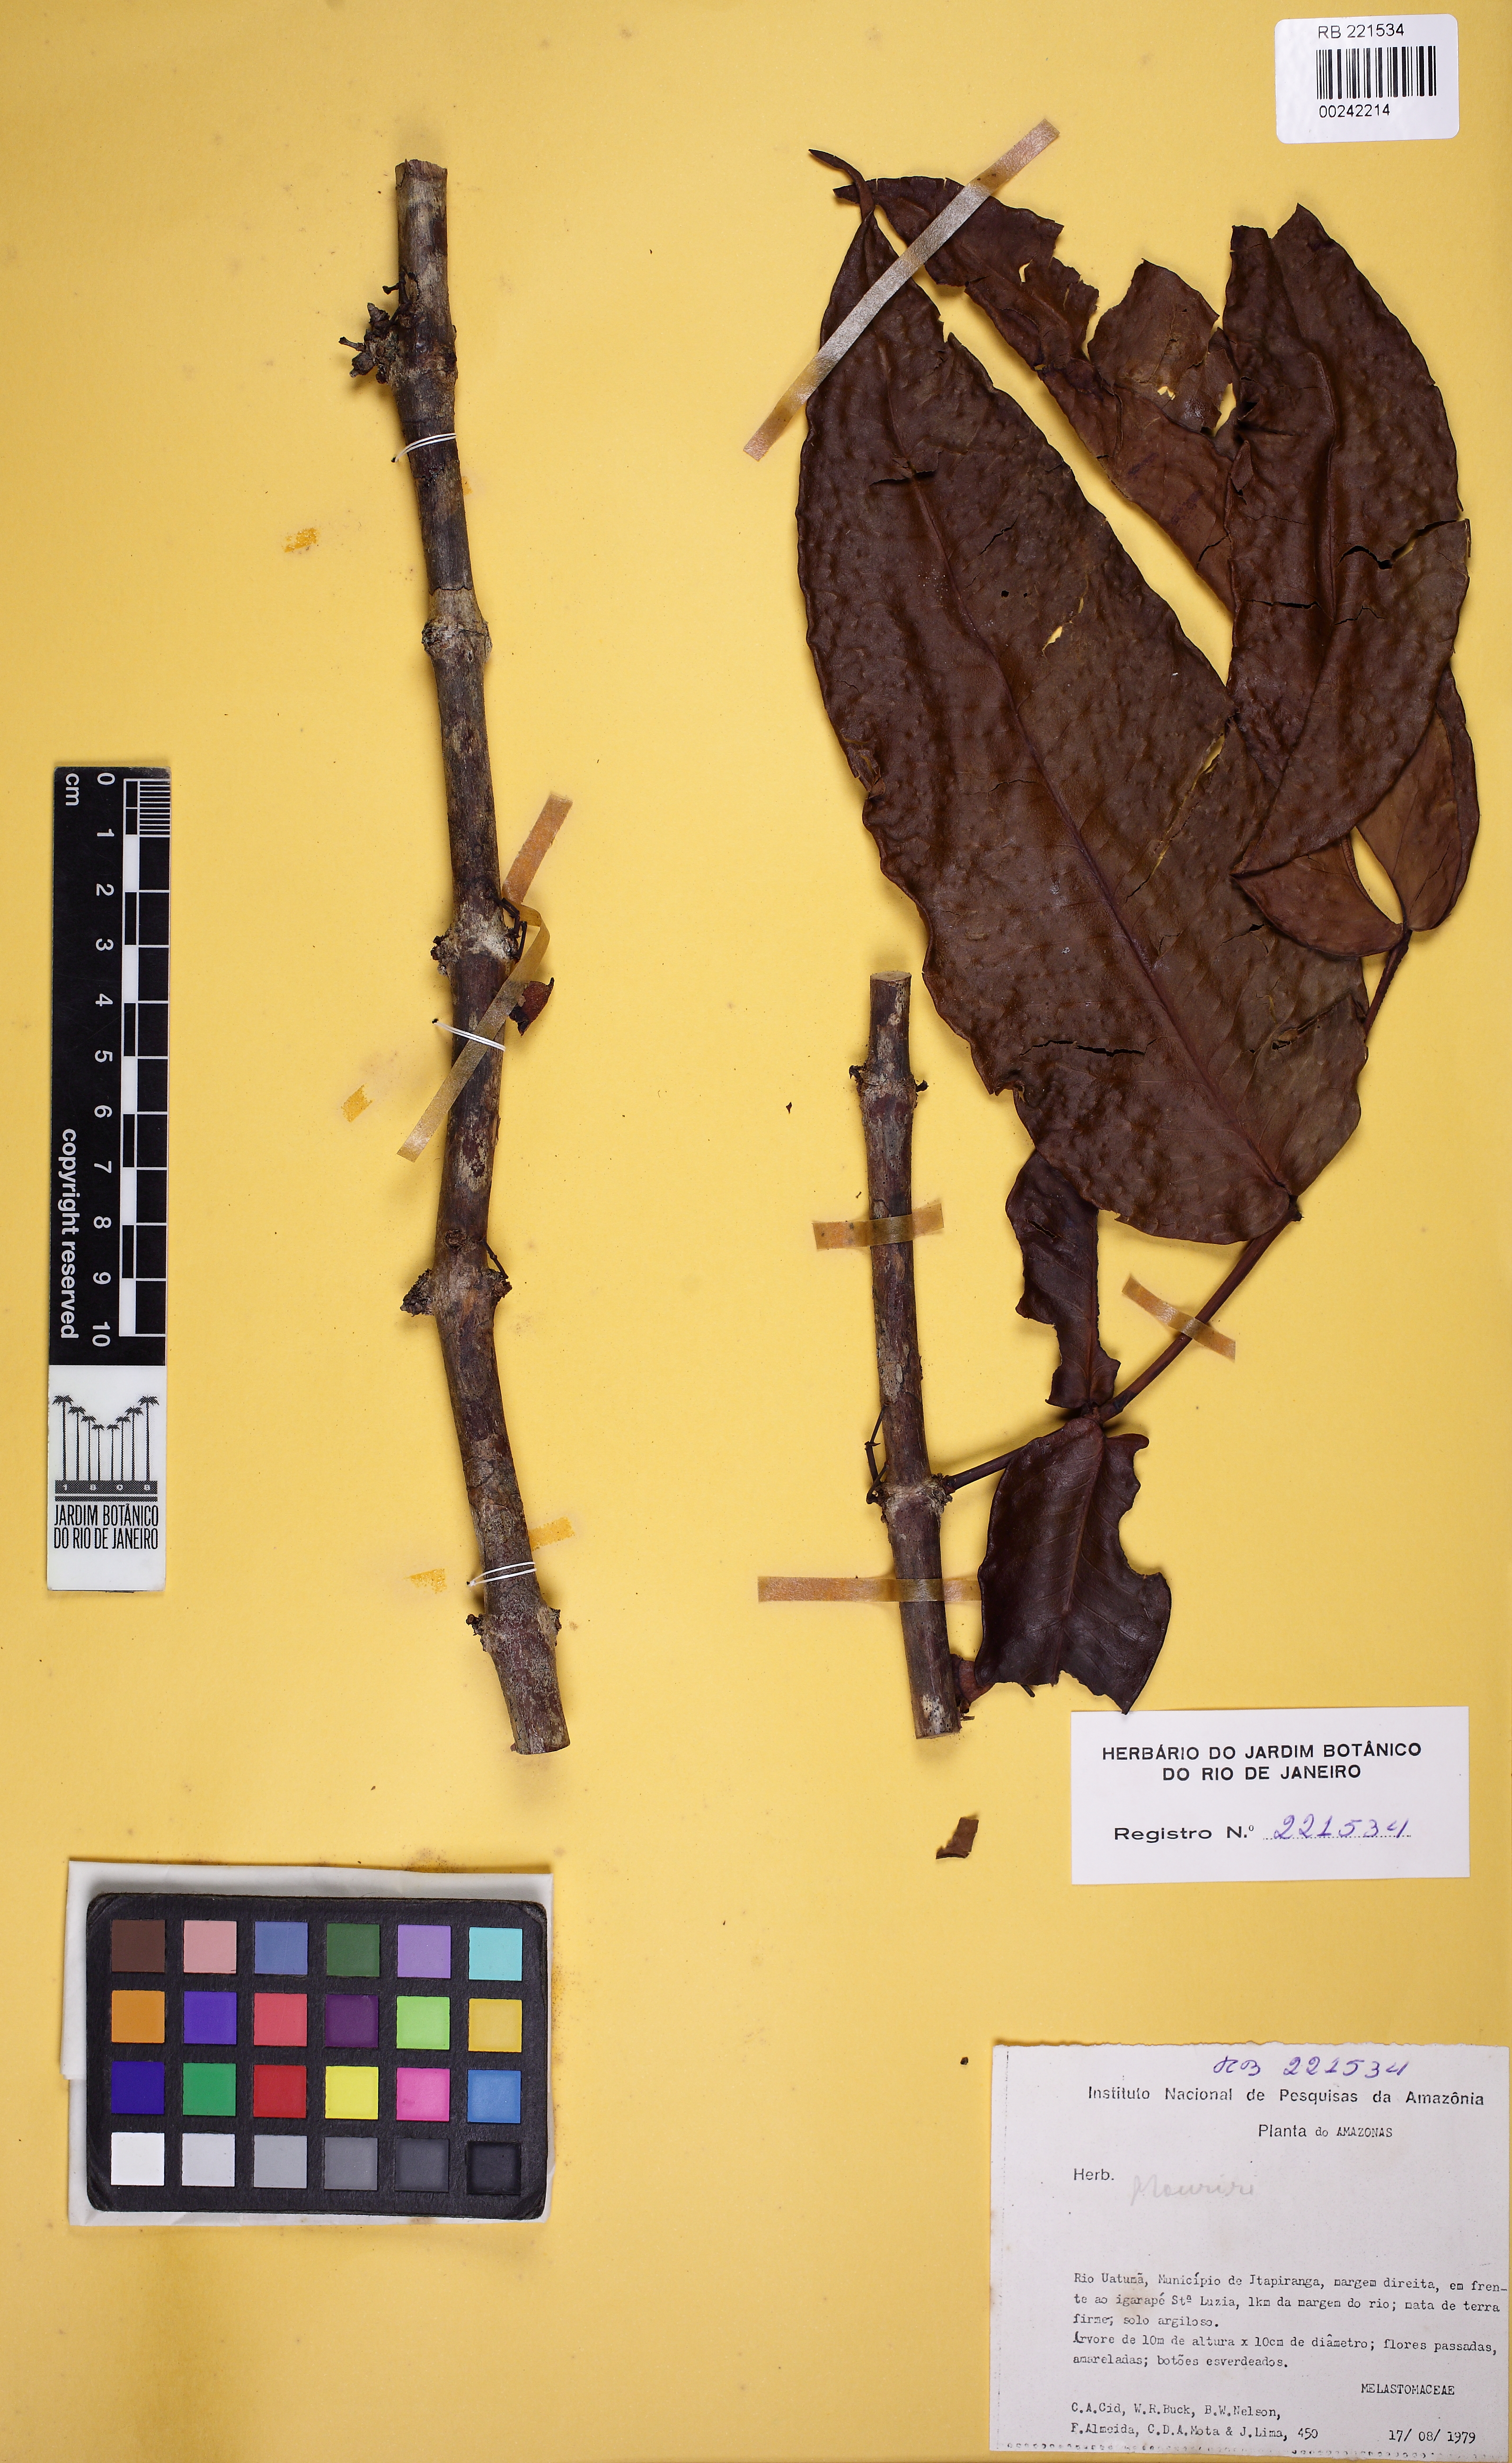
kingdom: Plantae
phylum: Tracheophyta
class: Magnoliopsida
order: Myrtales
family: Melastomataceae
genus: Mouriri
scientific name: Mouriri grandiflora
